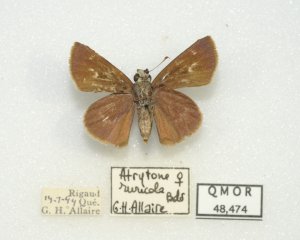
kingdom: Animalia
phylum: Arthropoda
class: Insecta
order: Lepidoptera
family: Hesperiidae
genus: Euphyes
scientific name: Euphyes vestris
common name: Dun Skipper
